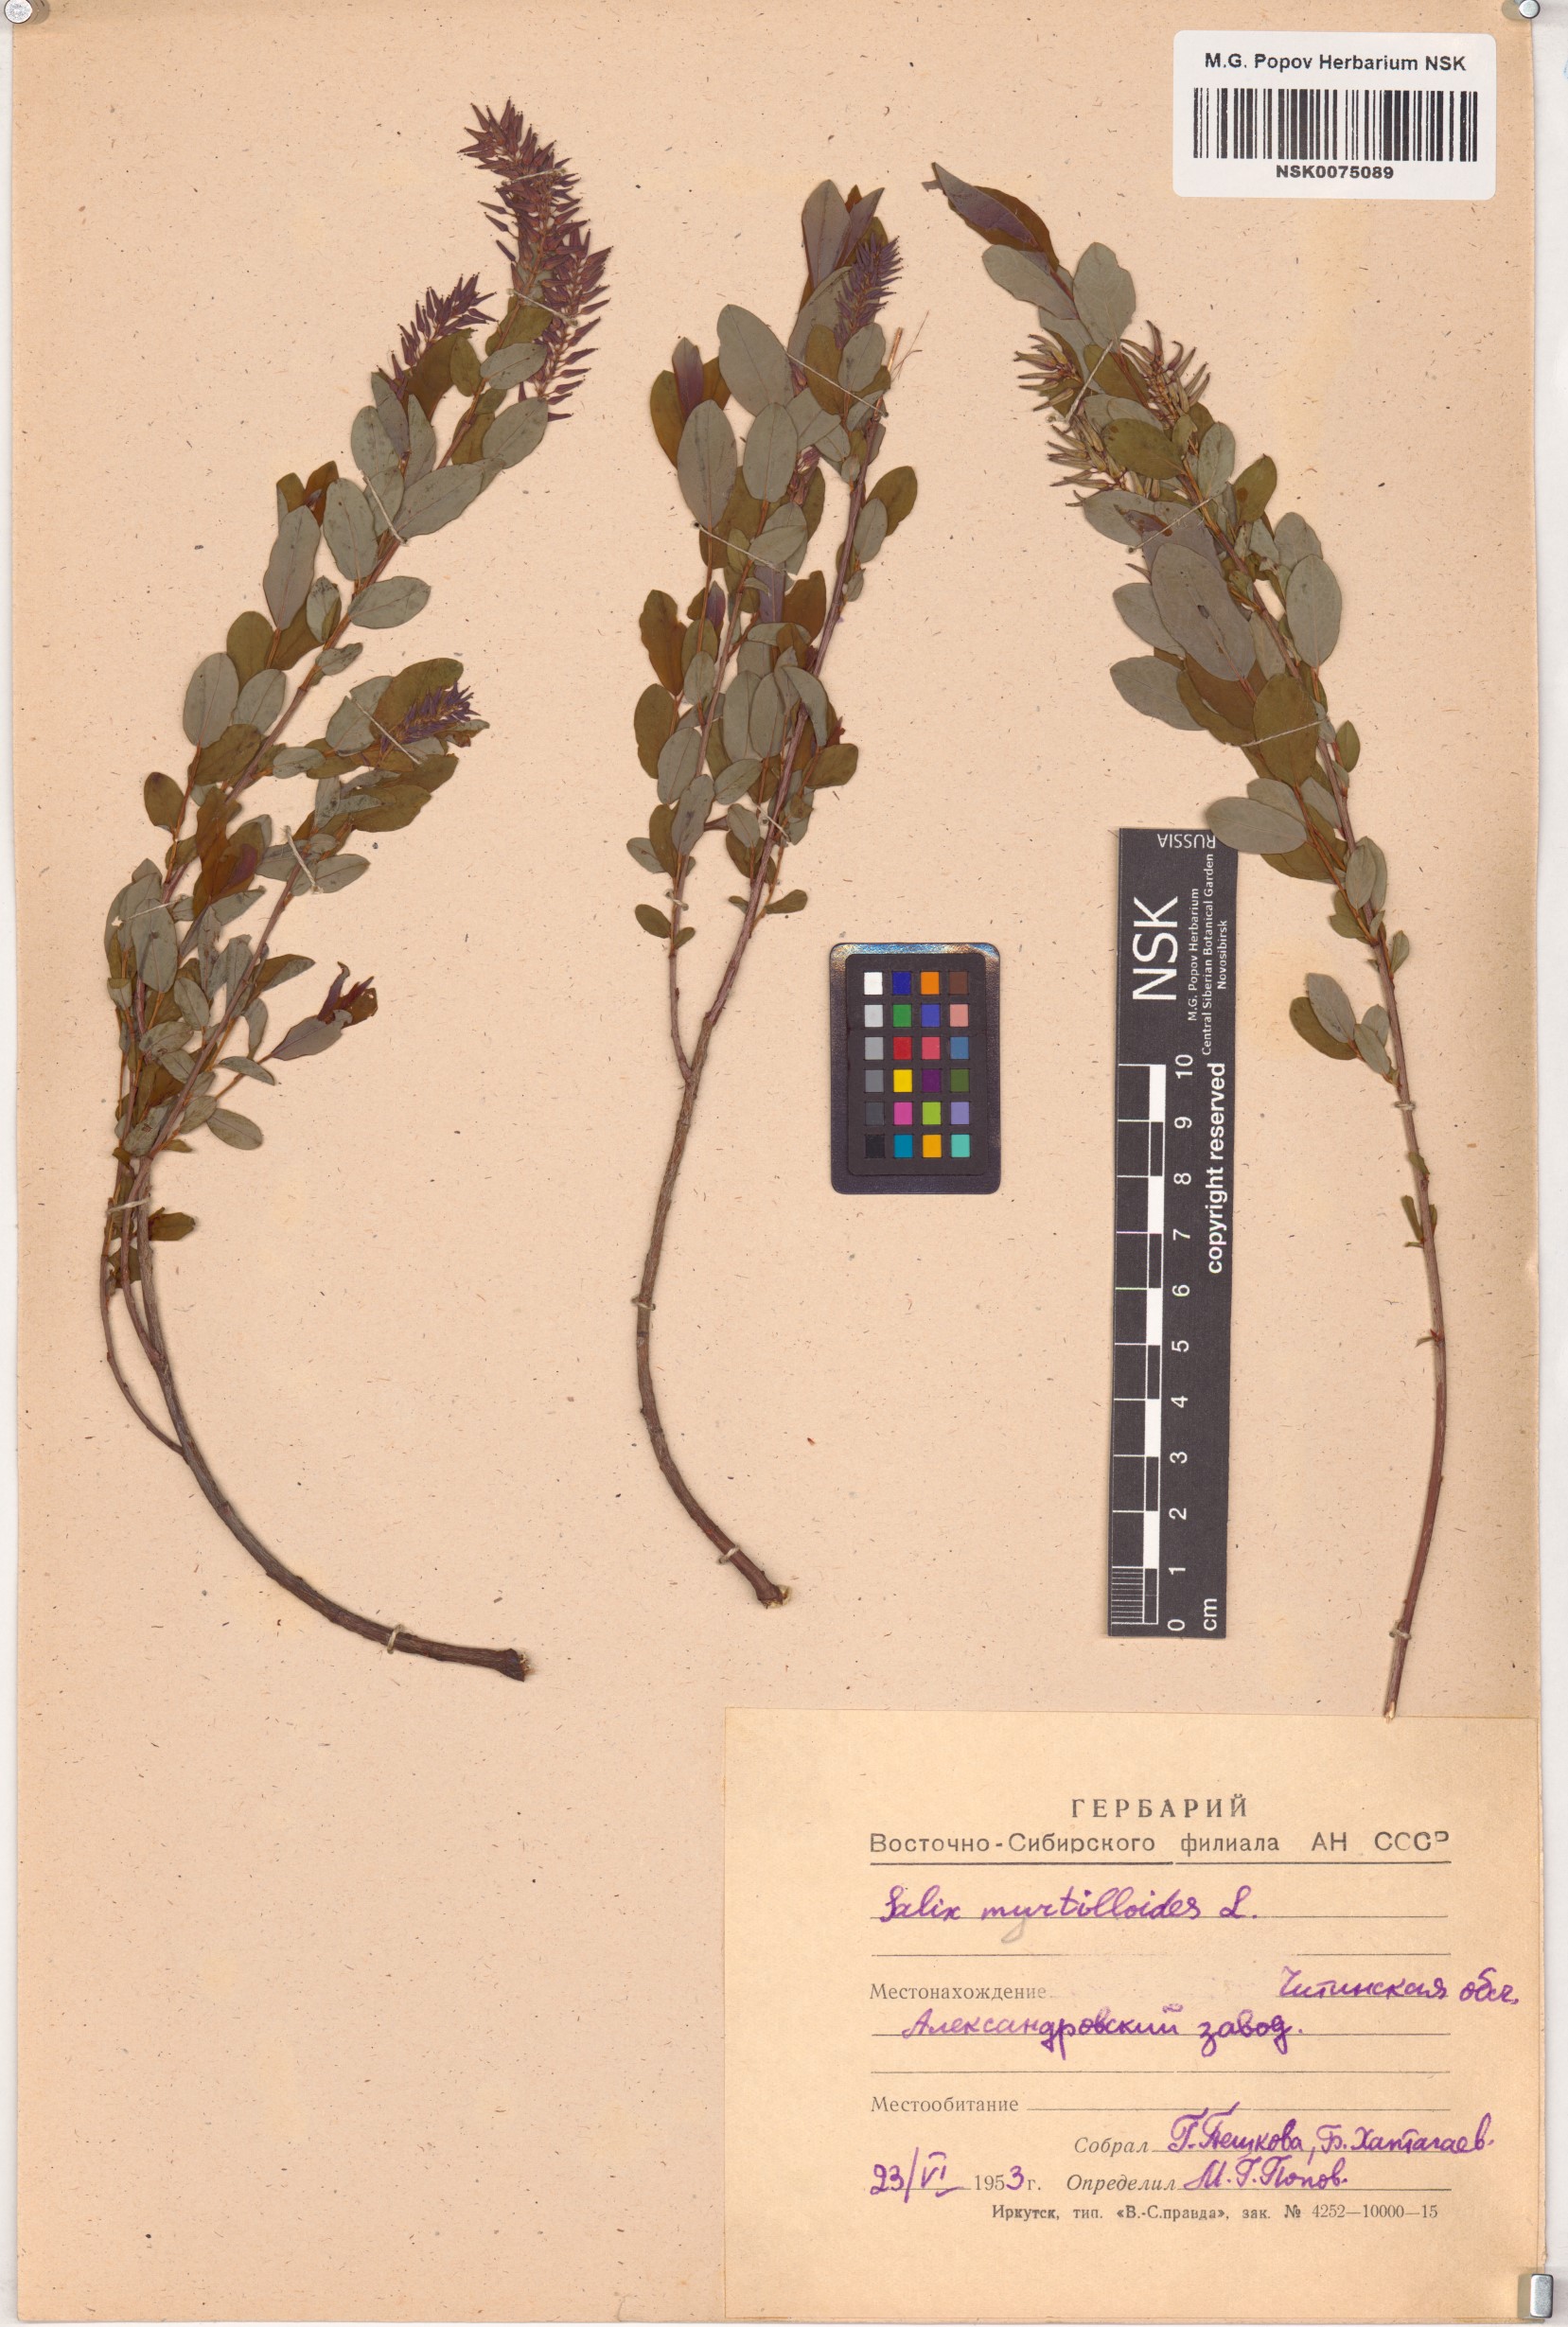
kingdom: Plantae
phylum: Tracheophyta
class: Magnoliopsida
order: Malpighiales
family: Salicaceae
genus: Salix
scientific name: Salix myrtilloides
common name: Myrtle-leaved willow
